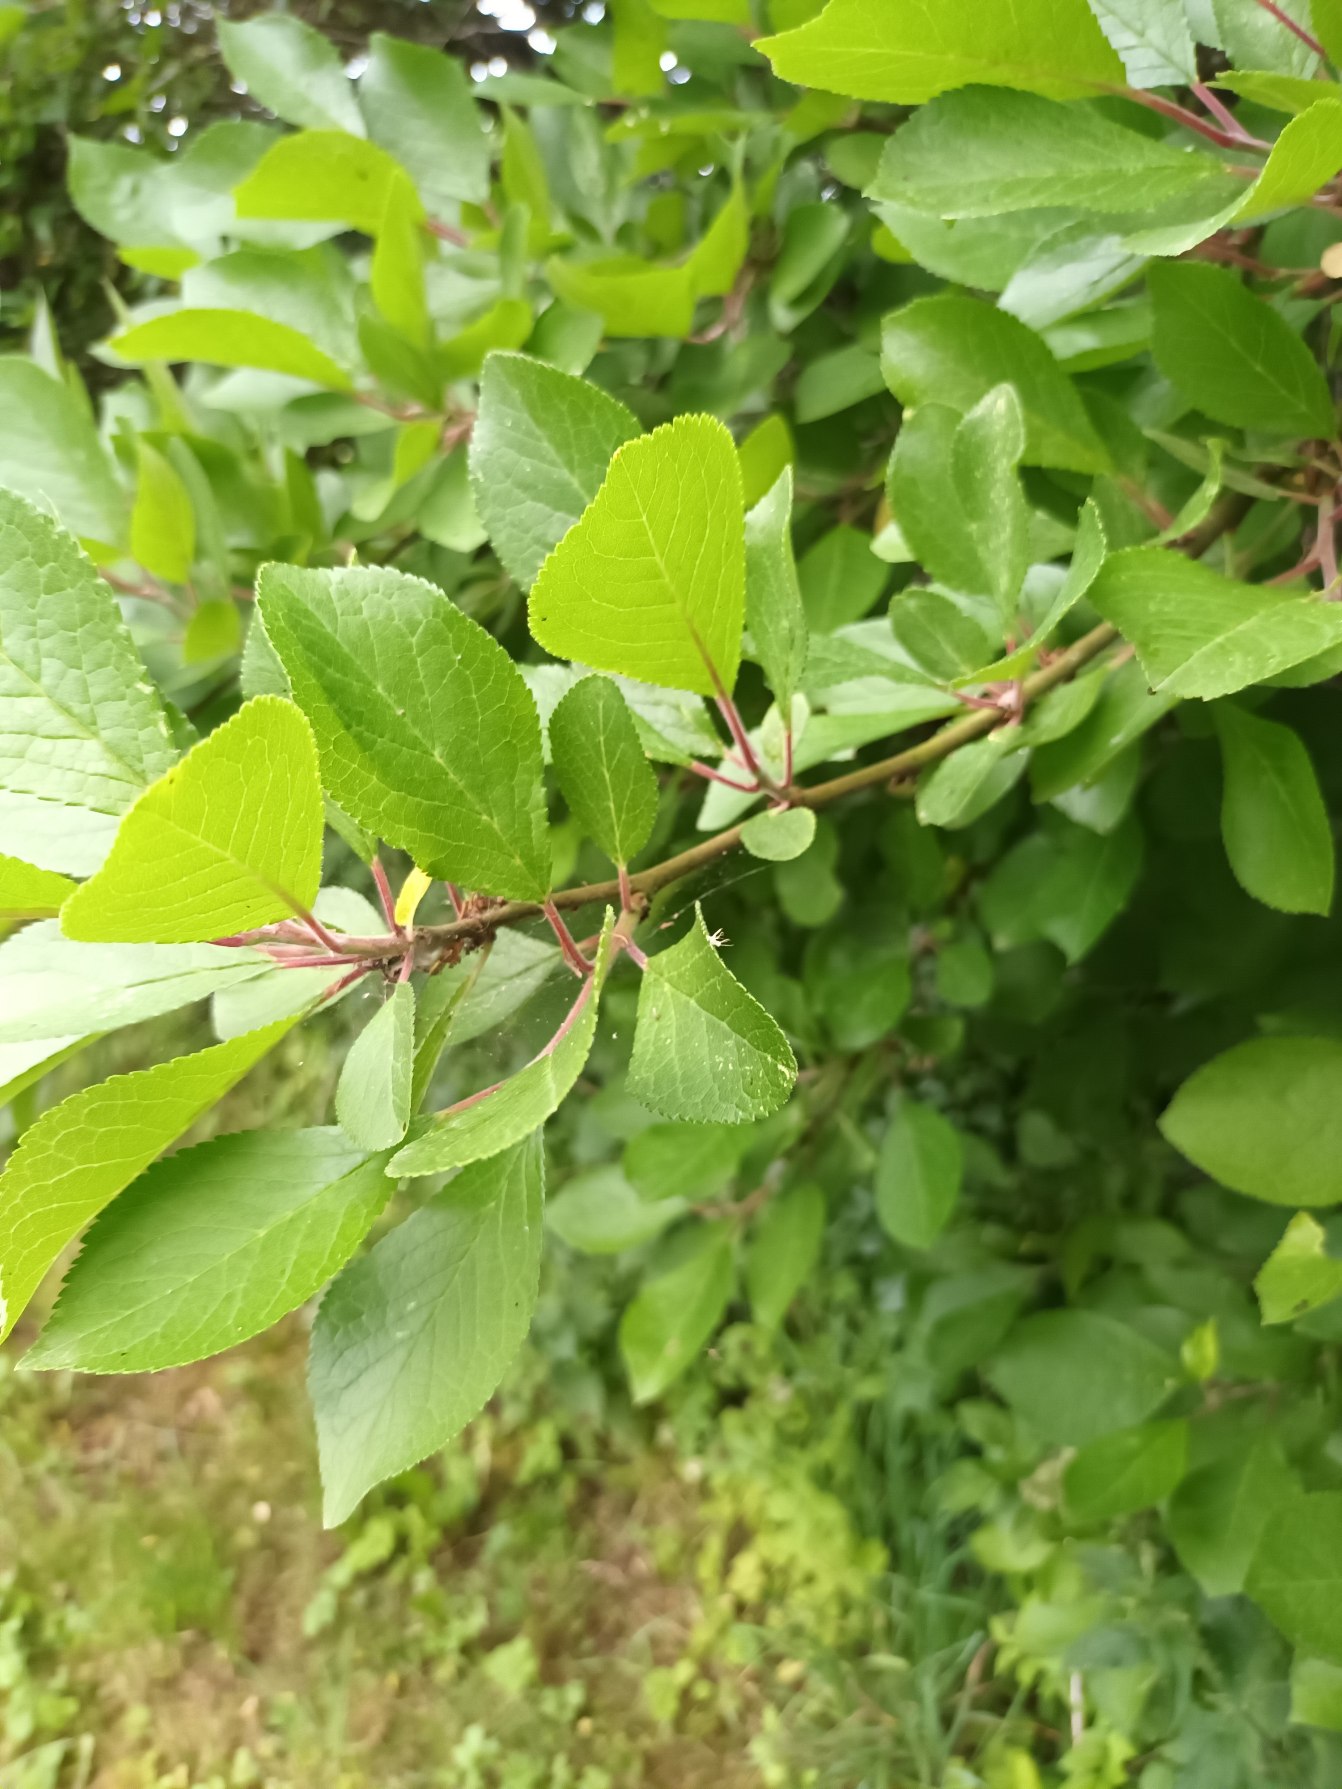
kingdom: Plantae
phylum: Tracheophyta
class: Magnoliopsida
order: Rosales
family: Rosaceae
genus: Prunus
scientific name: Prunus domestica
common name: Kræge
